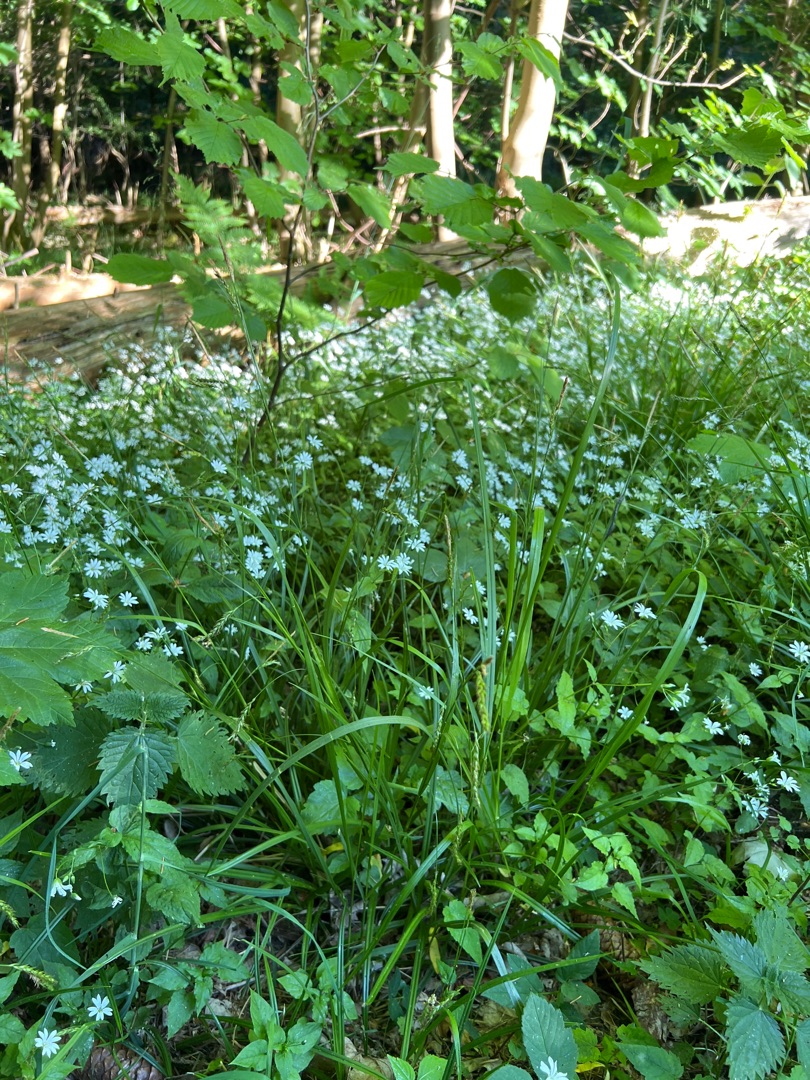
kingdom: Plantae
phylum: Tracheophyta
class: Liliopsida
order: Poales
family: Cyperaceae
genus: Carex
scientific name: Carex sylvatica
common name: Skov-star
